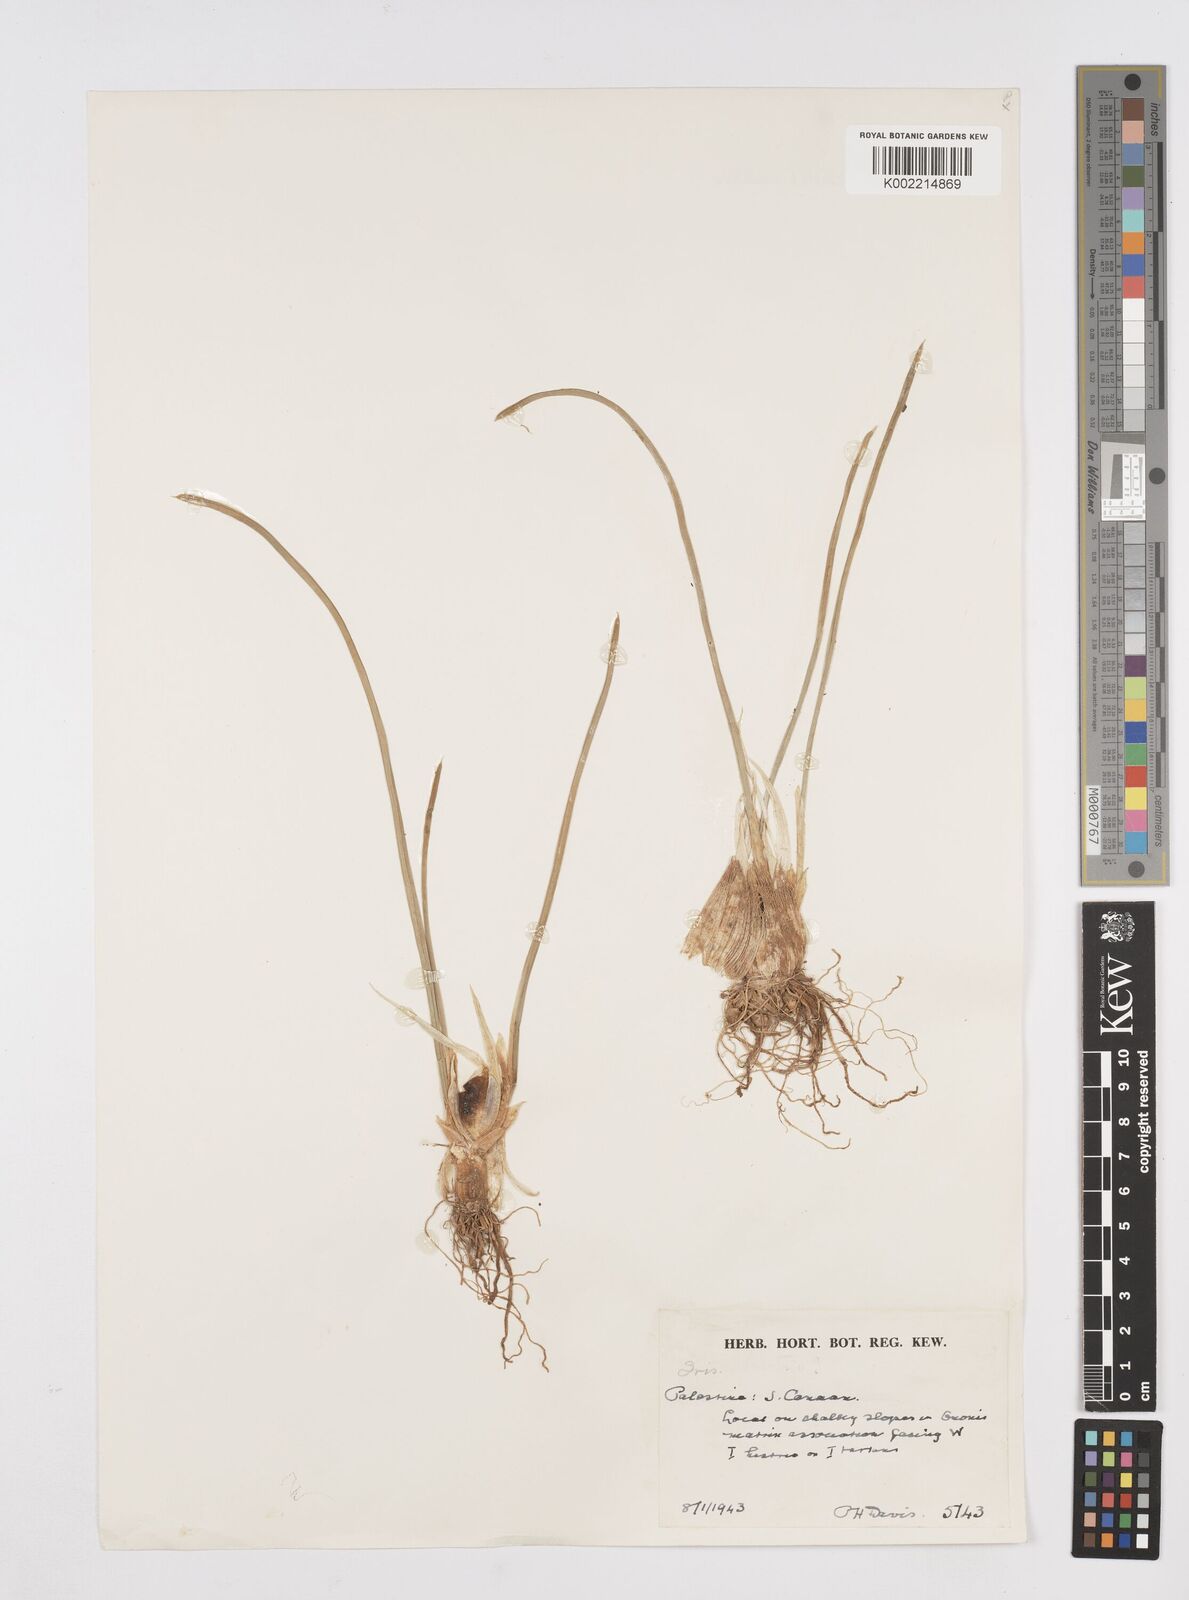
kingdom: Plantae
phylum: Tracheophyta
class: Liliopsida
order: Asparagales
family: Iridaceae
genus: Iris
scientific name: Iris vartanii
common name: Vartanii iris
